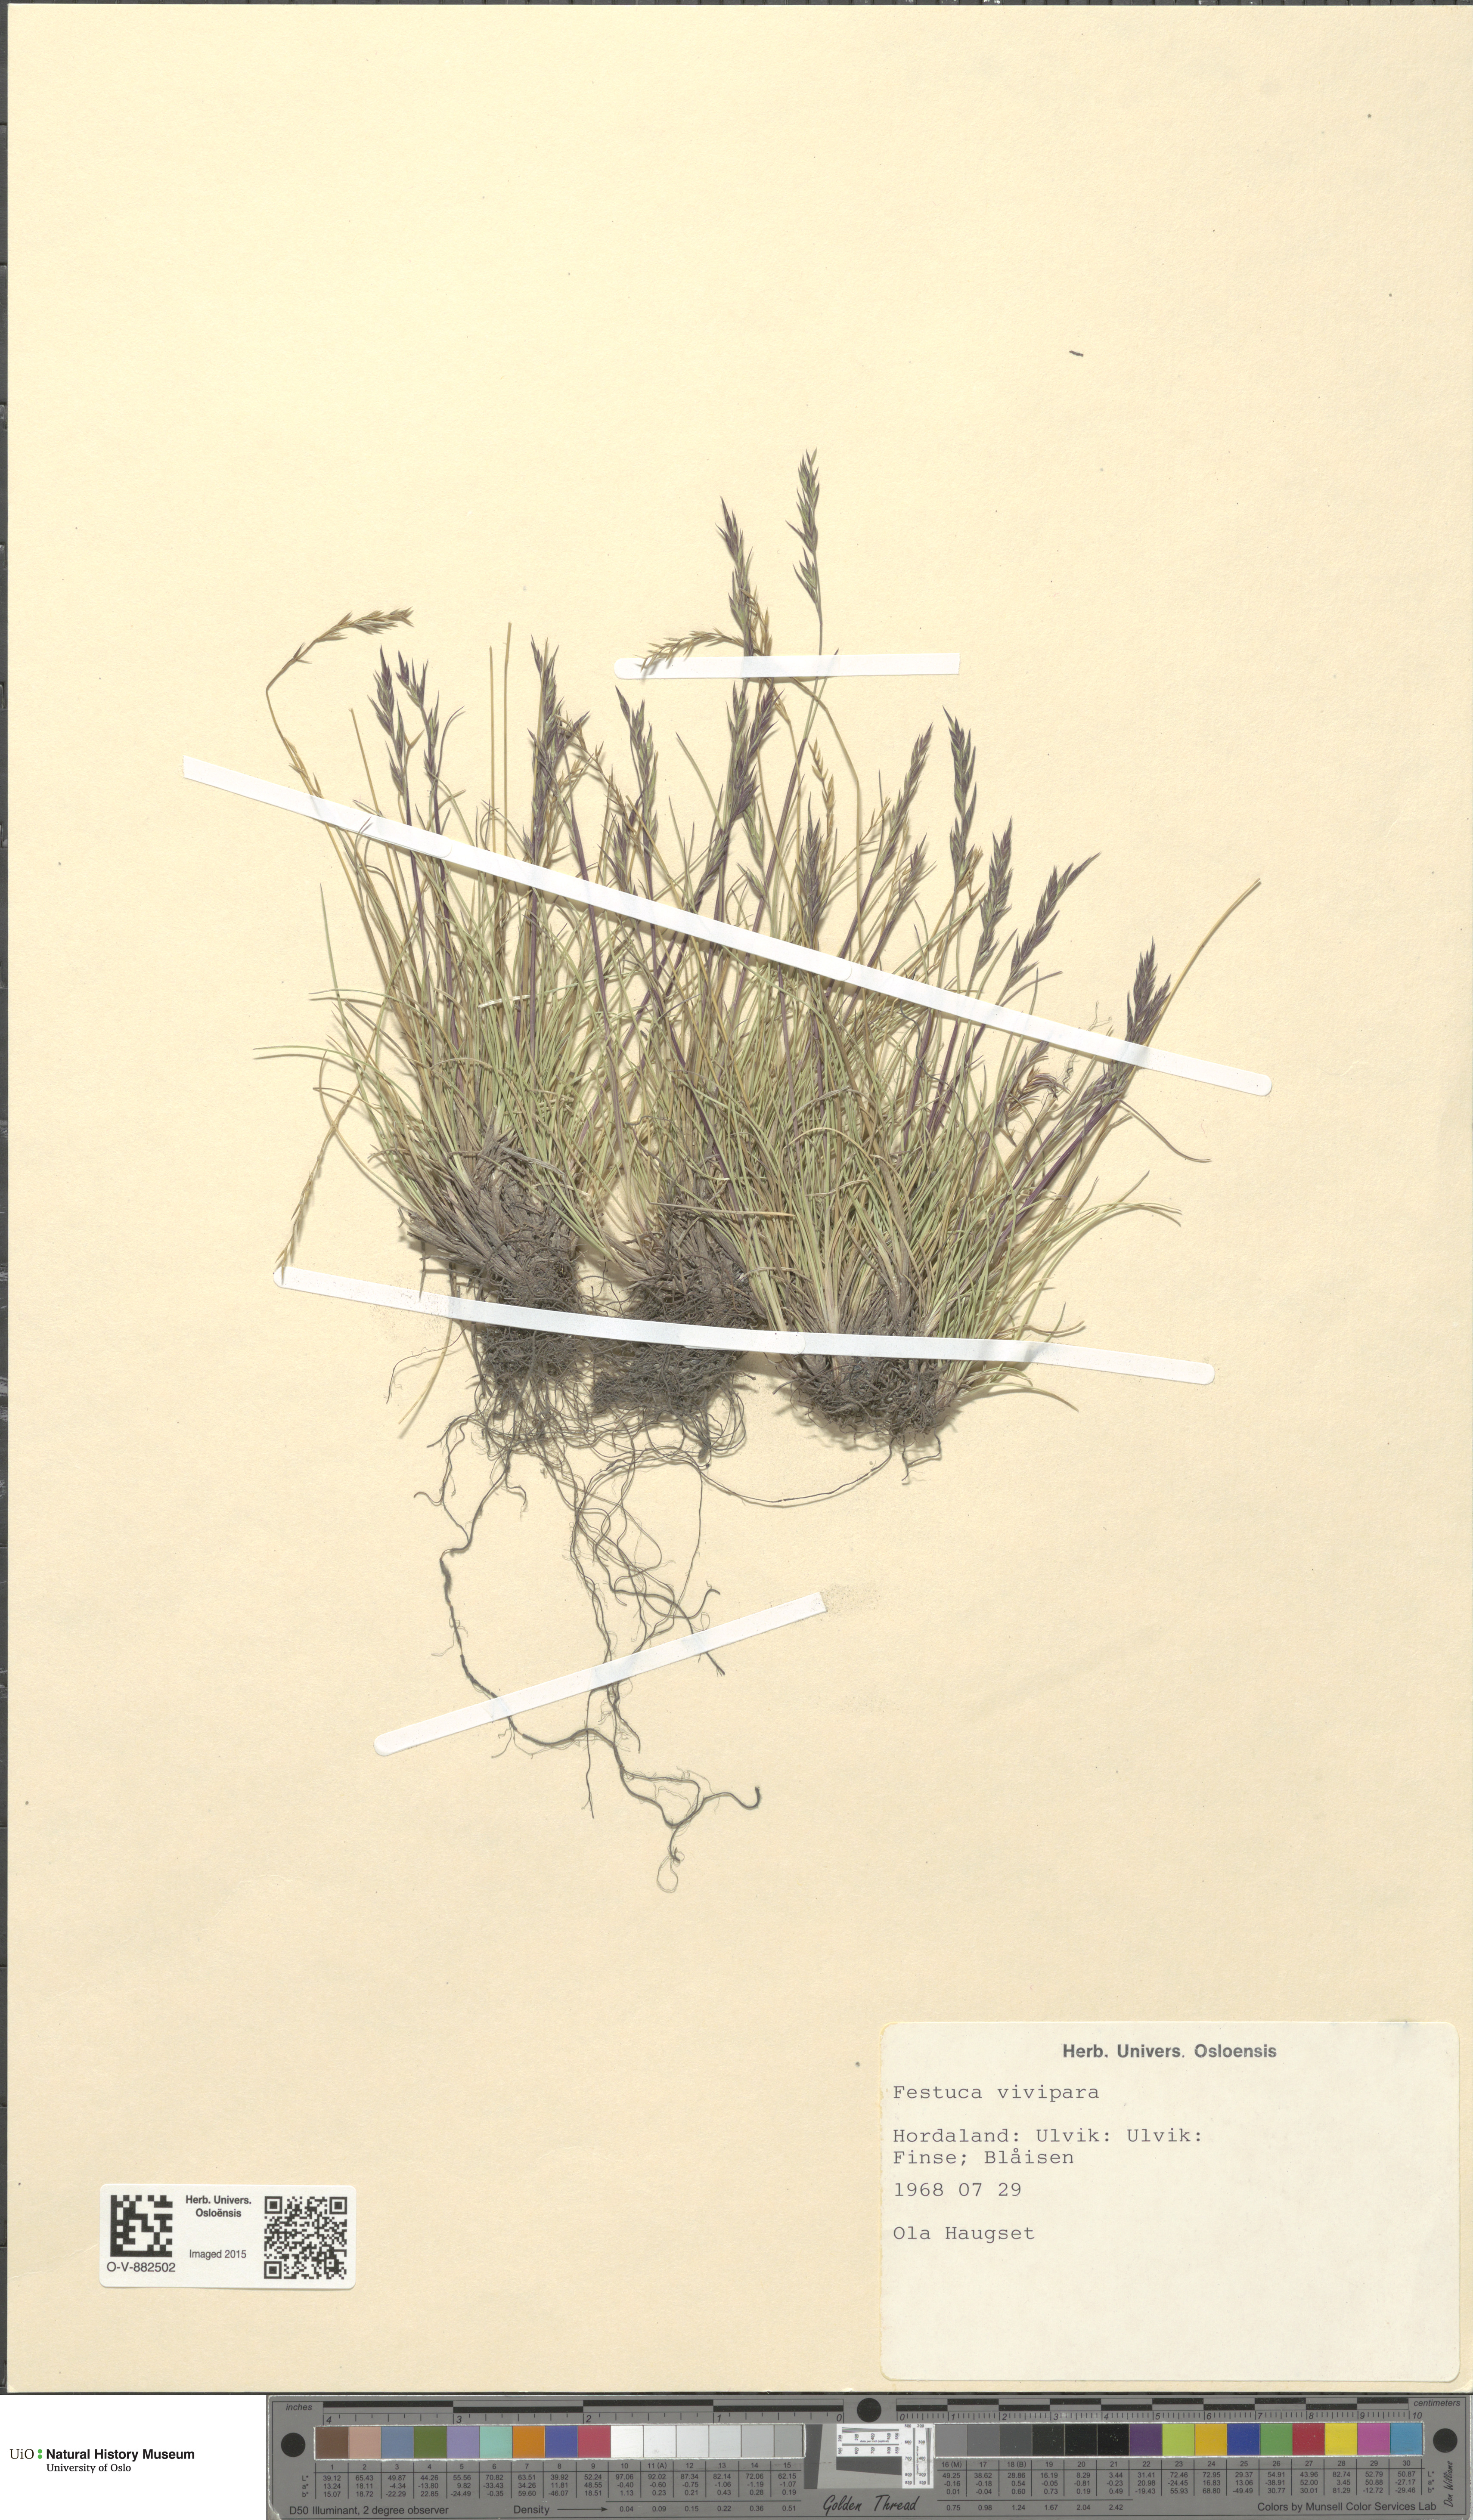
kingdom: Plantae
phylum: Tracheophyta
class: Liliopsida
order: Poales
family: Poaceae
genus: Festuca
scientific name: Festuca vivipara
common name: Viviparous sheep's-fescue
